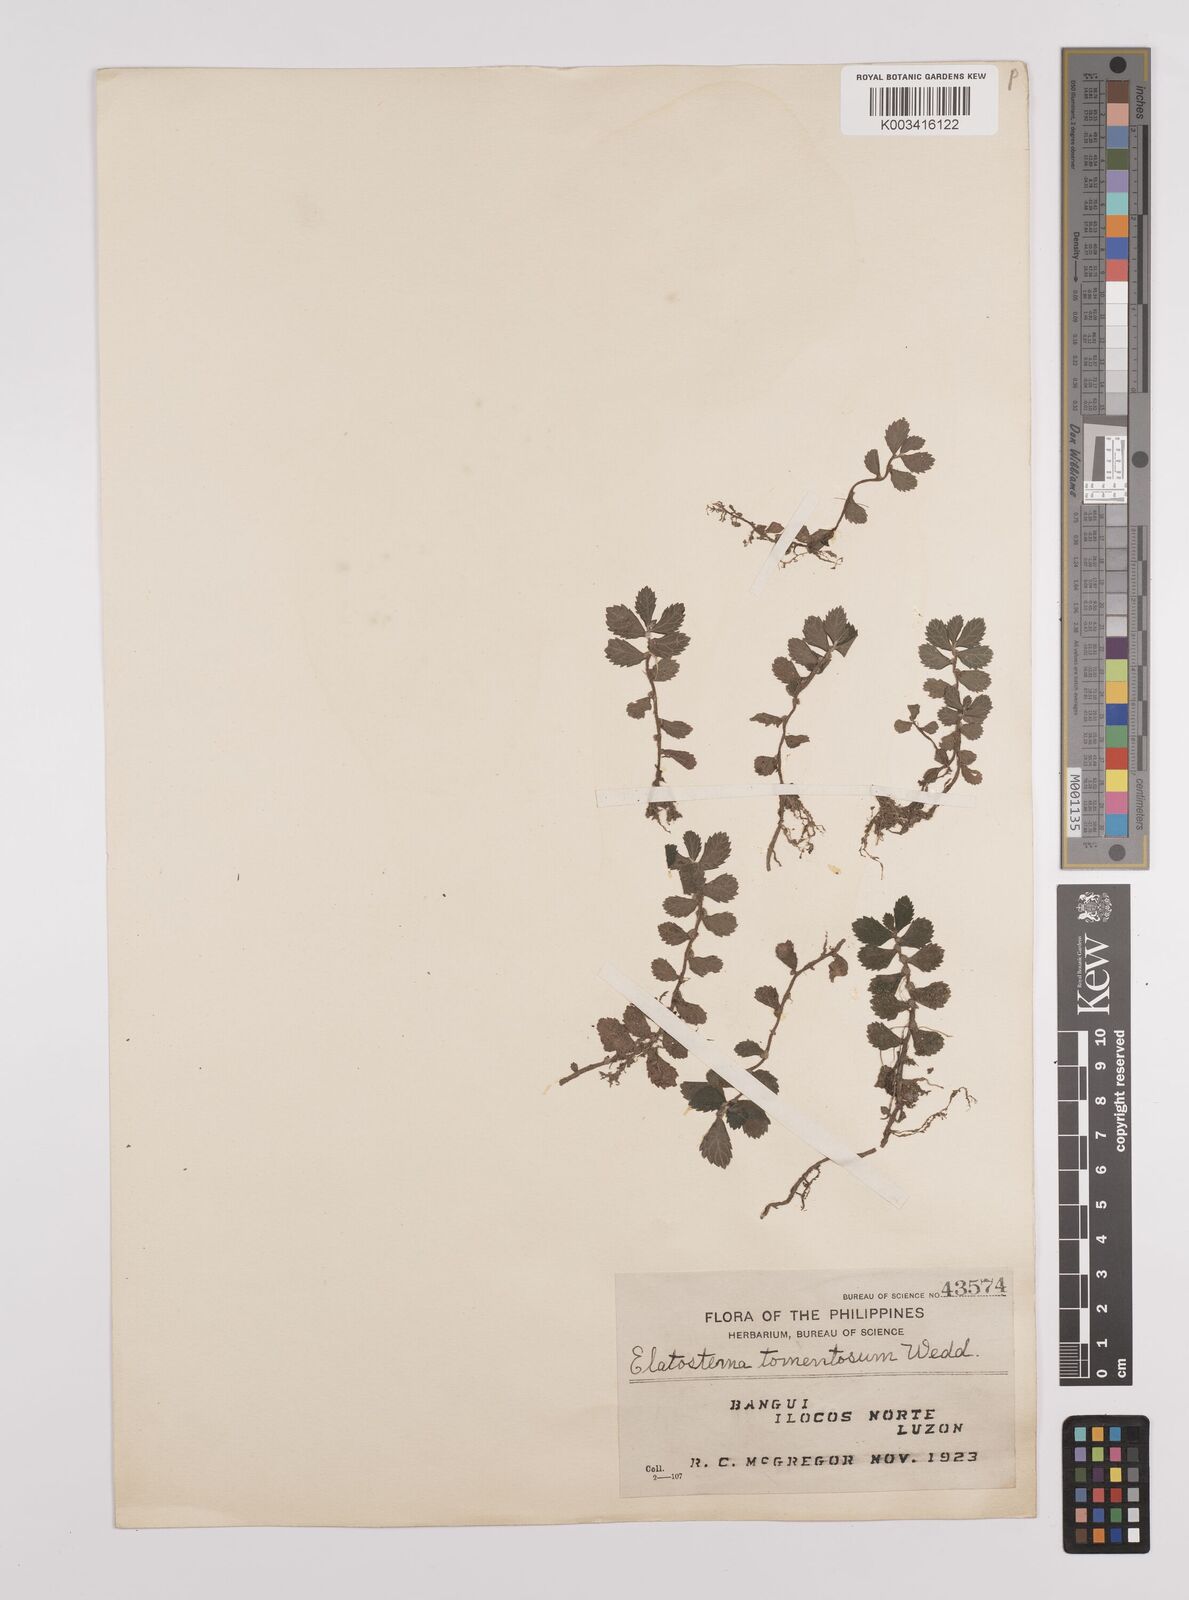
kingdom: Plantae
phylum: Tracheophyta
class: Magnoliopsida
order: Rosales
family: Urticaceae
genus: Elatostema
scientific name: Elatostema tomentosum
